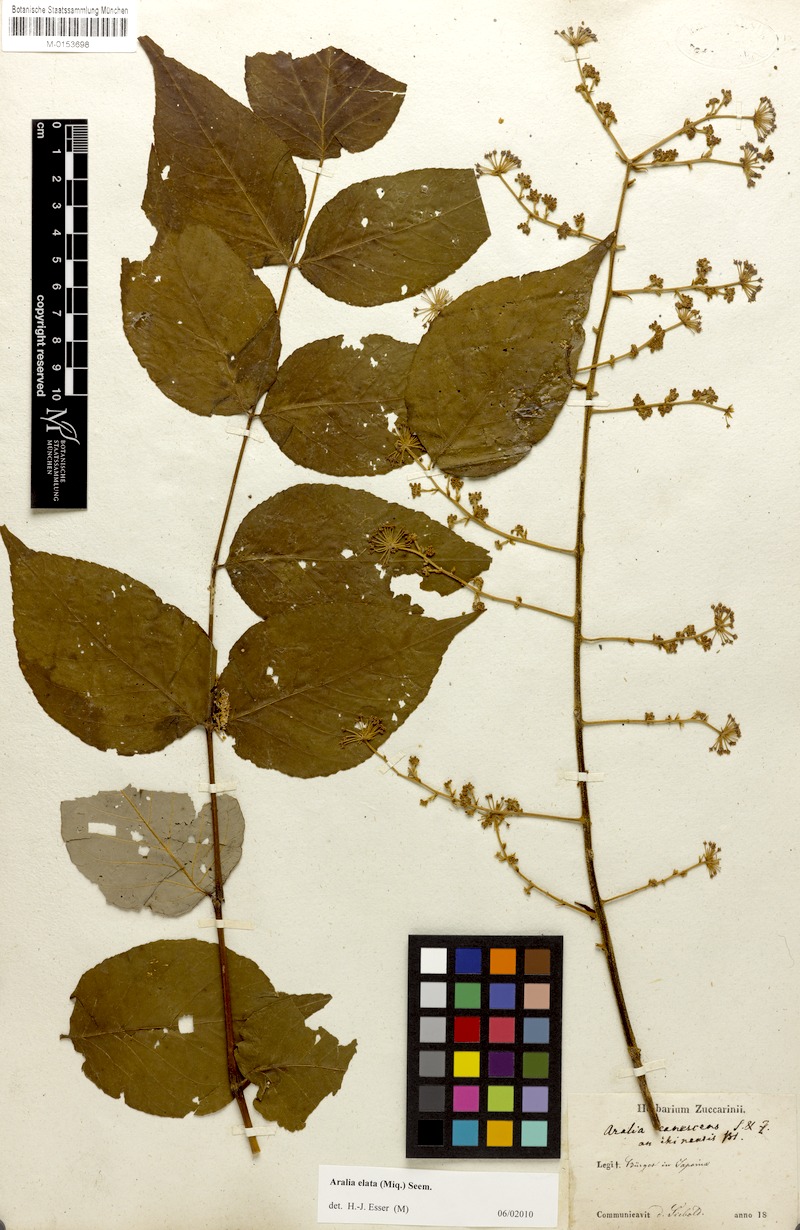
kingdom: Plantae
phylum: Tracheophyta
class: Magnoliopsida
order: Apiales
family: Araliaceae
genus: Aralia
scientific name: Aralia elata
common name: Japanese angelica-tree
